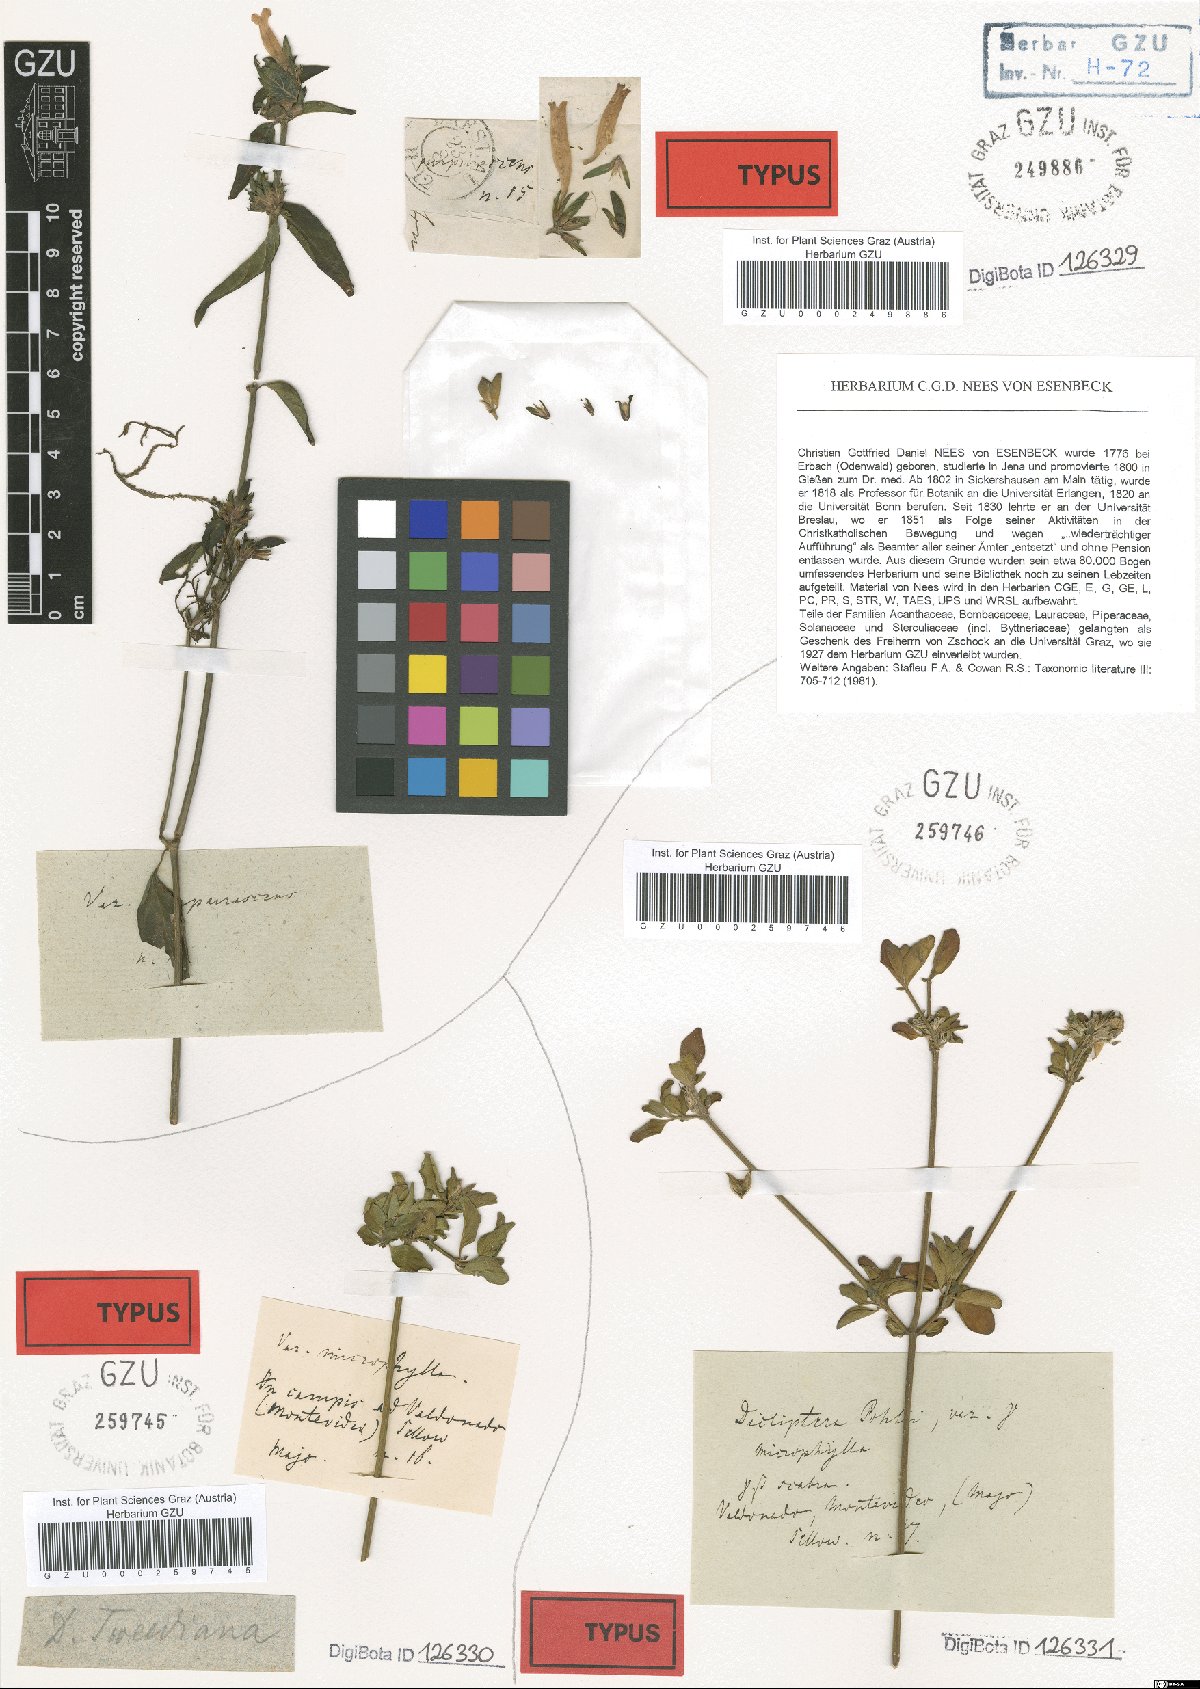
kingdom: Plantae
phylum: Tracheophyta
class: Magnoliopsida
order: Lamiales
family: Acanthaceae
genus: Dicliptera
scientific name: Dicliptera squarrosa
